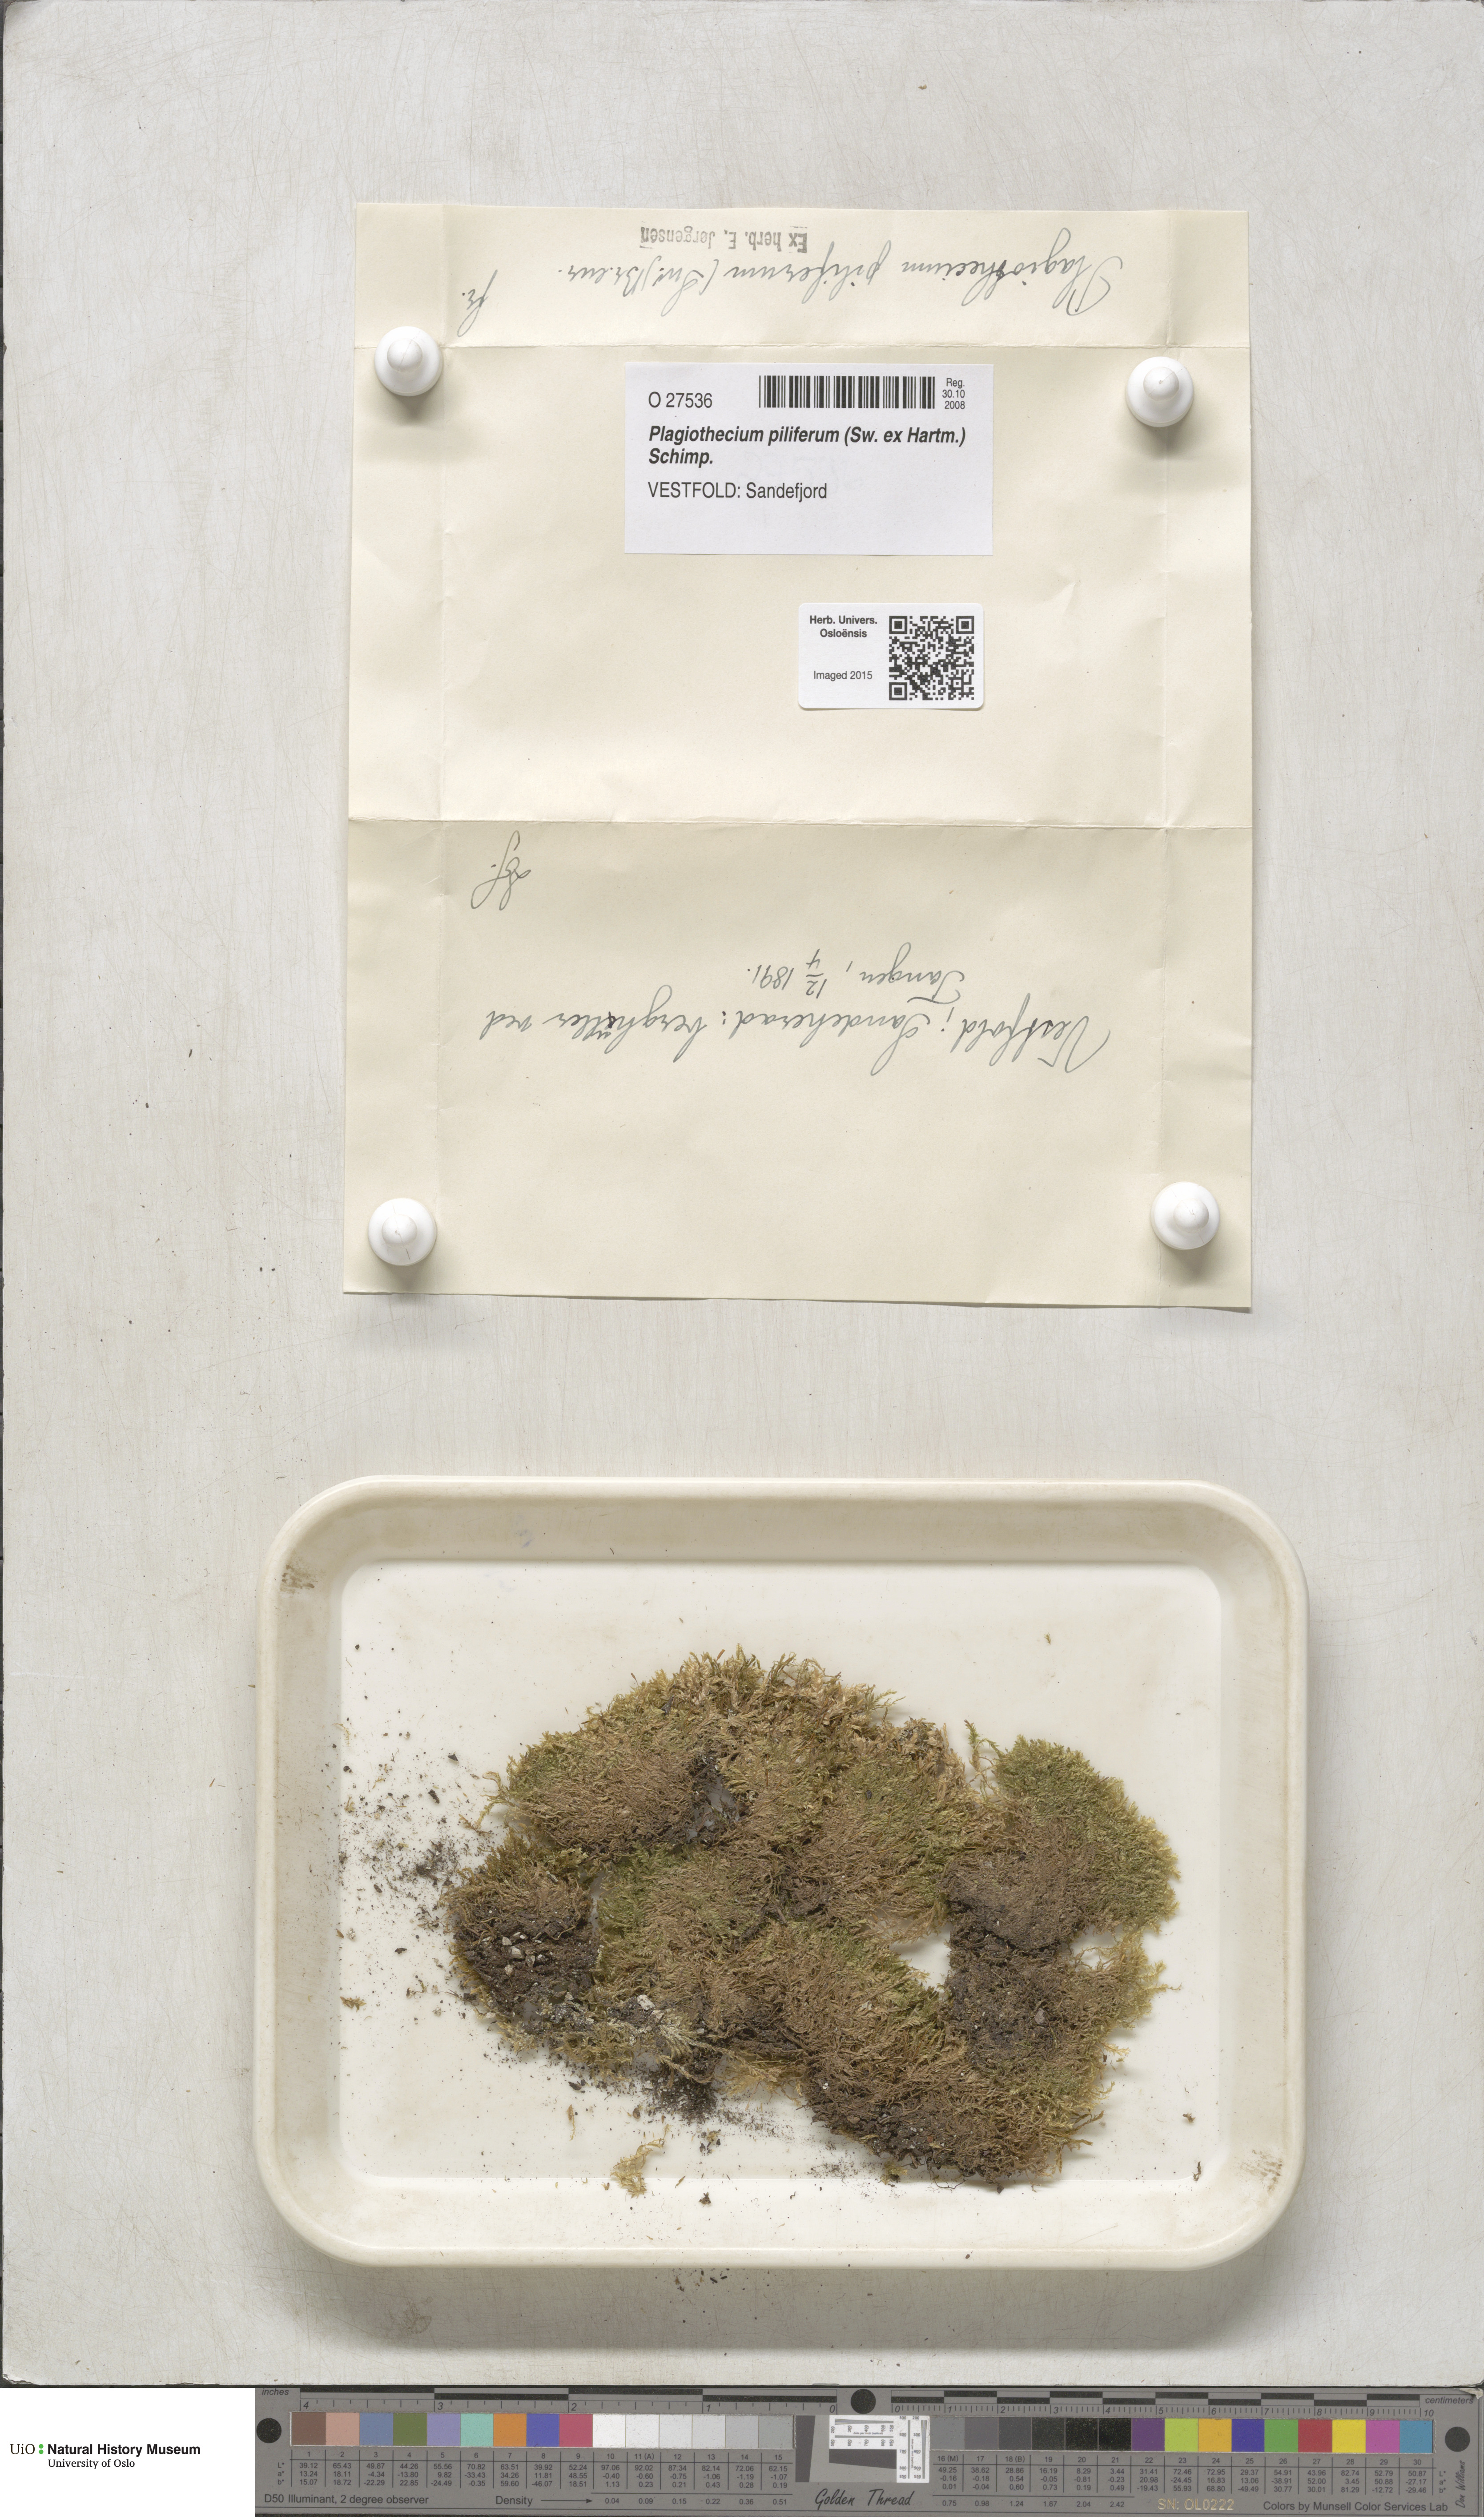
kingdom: Plantae
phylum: Bryophyta
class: Bryopsida
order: Hypnales
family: Plagiotheciaceae
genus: Rectithecium
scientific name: Rectithecium piliferum
